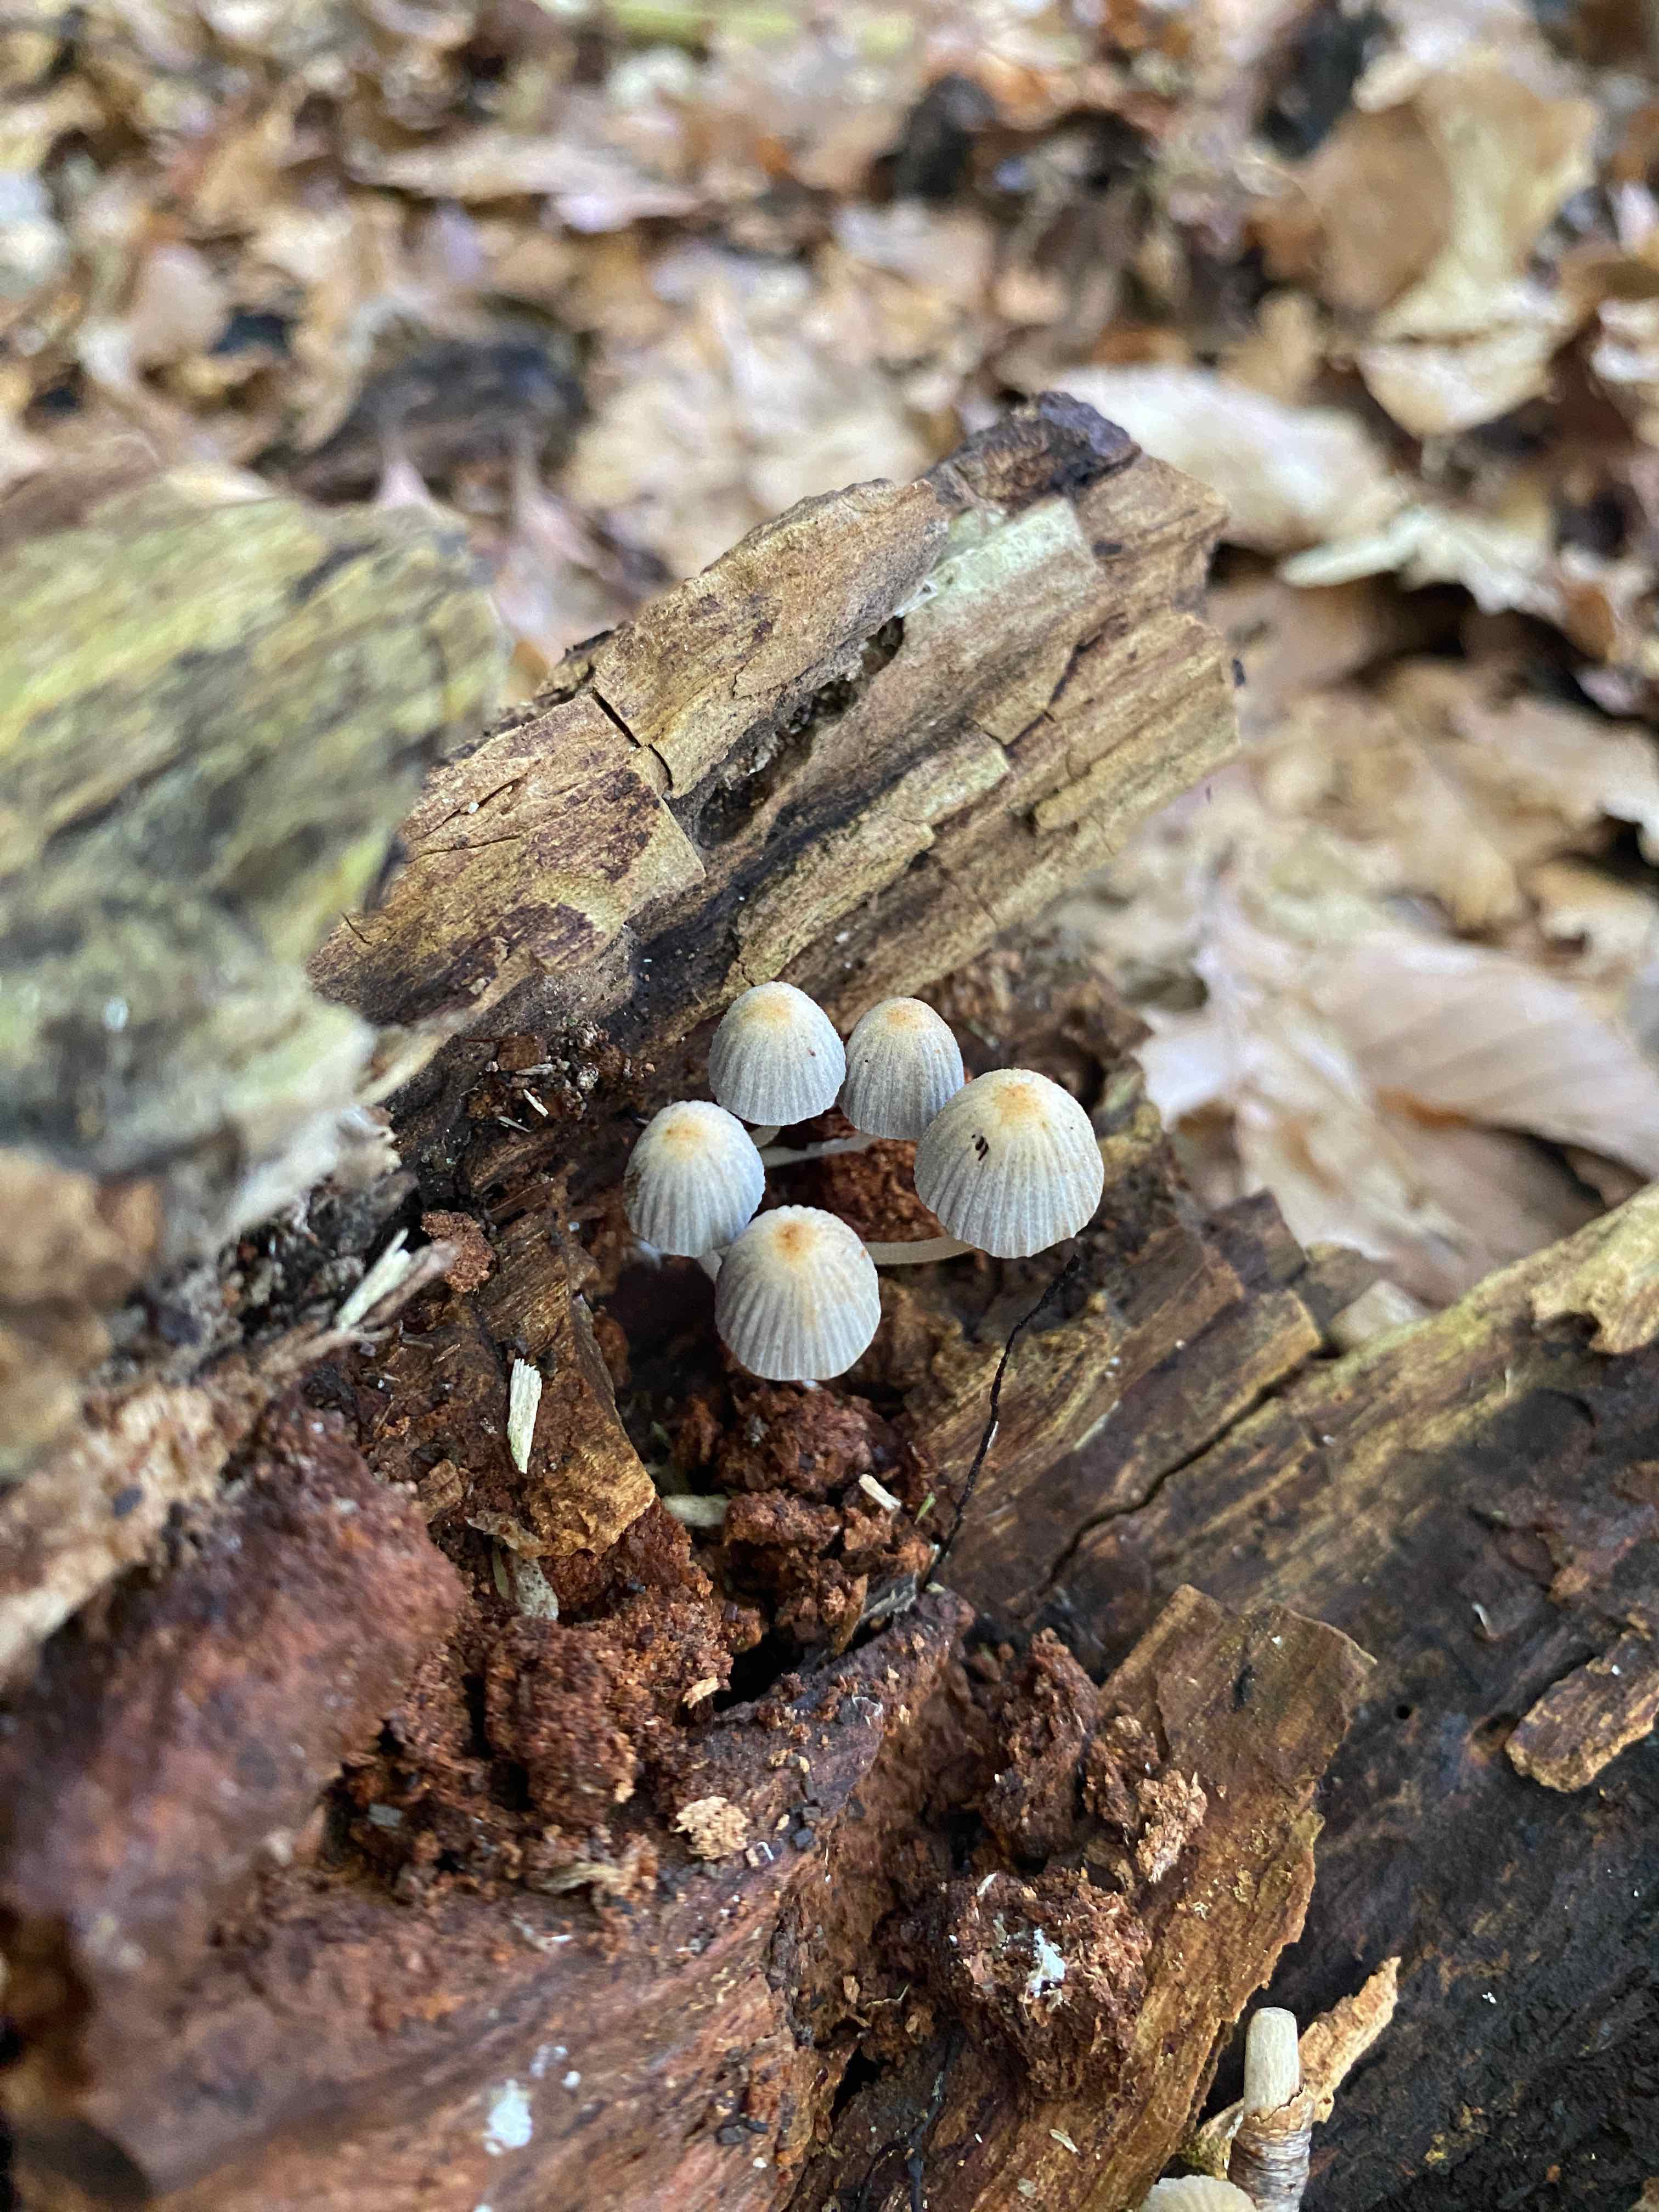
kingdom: Fungi
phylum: Basidiomycota
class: Agaricomycetes
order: Agaricales
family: Psathyrellaceae
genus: Coprinellus
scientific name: Coprinellus disseminatus
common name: bredsået blækhat
